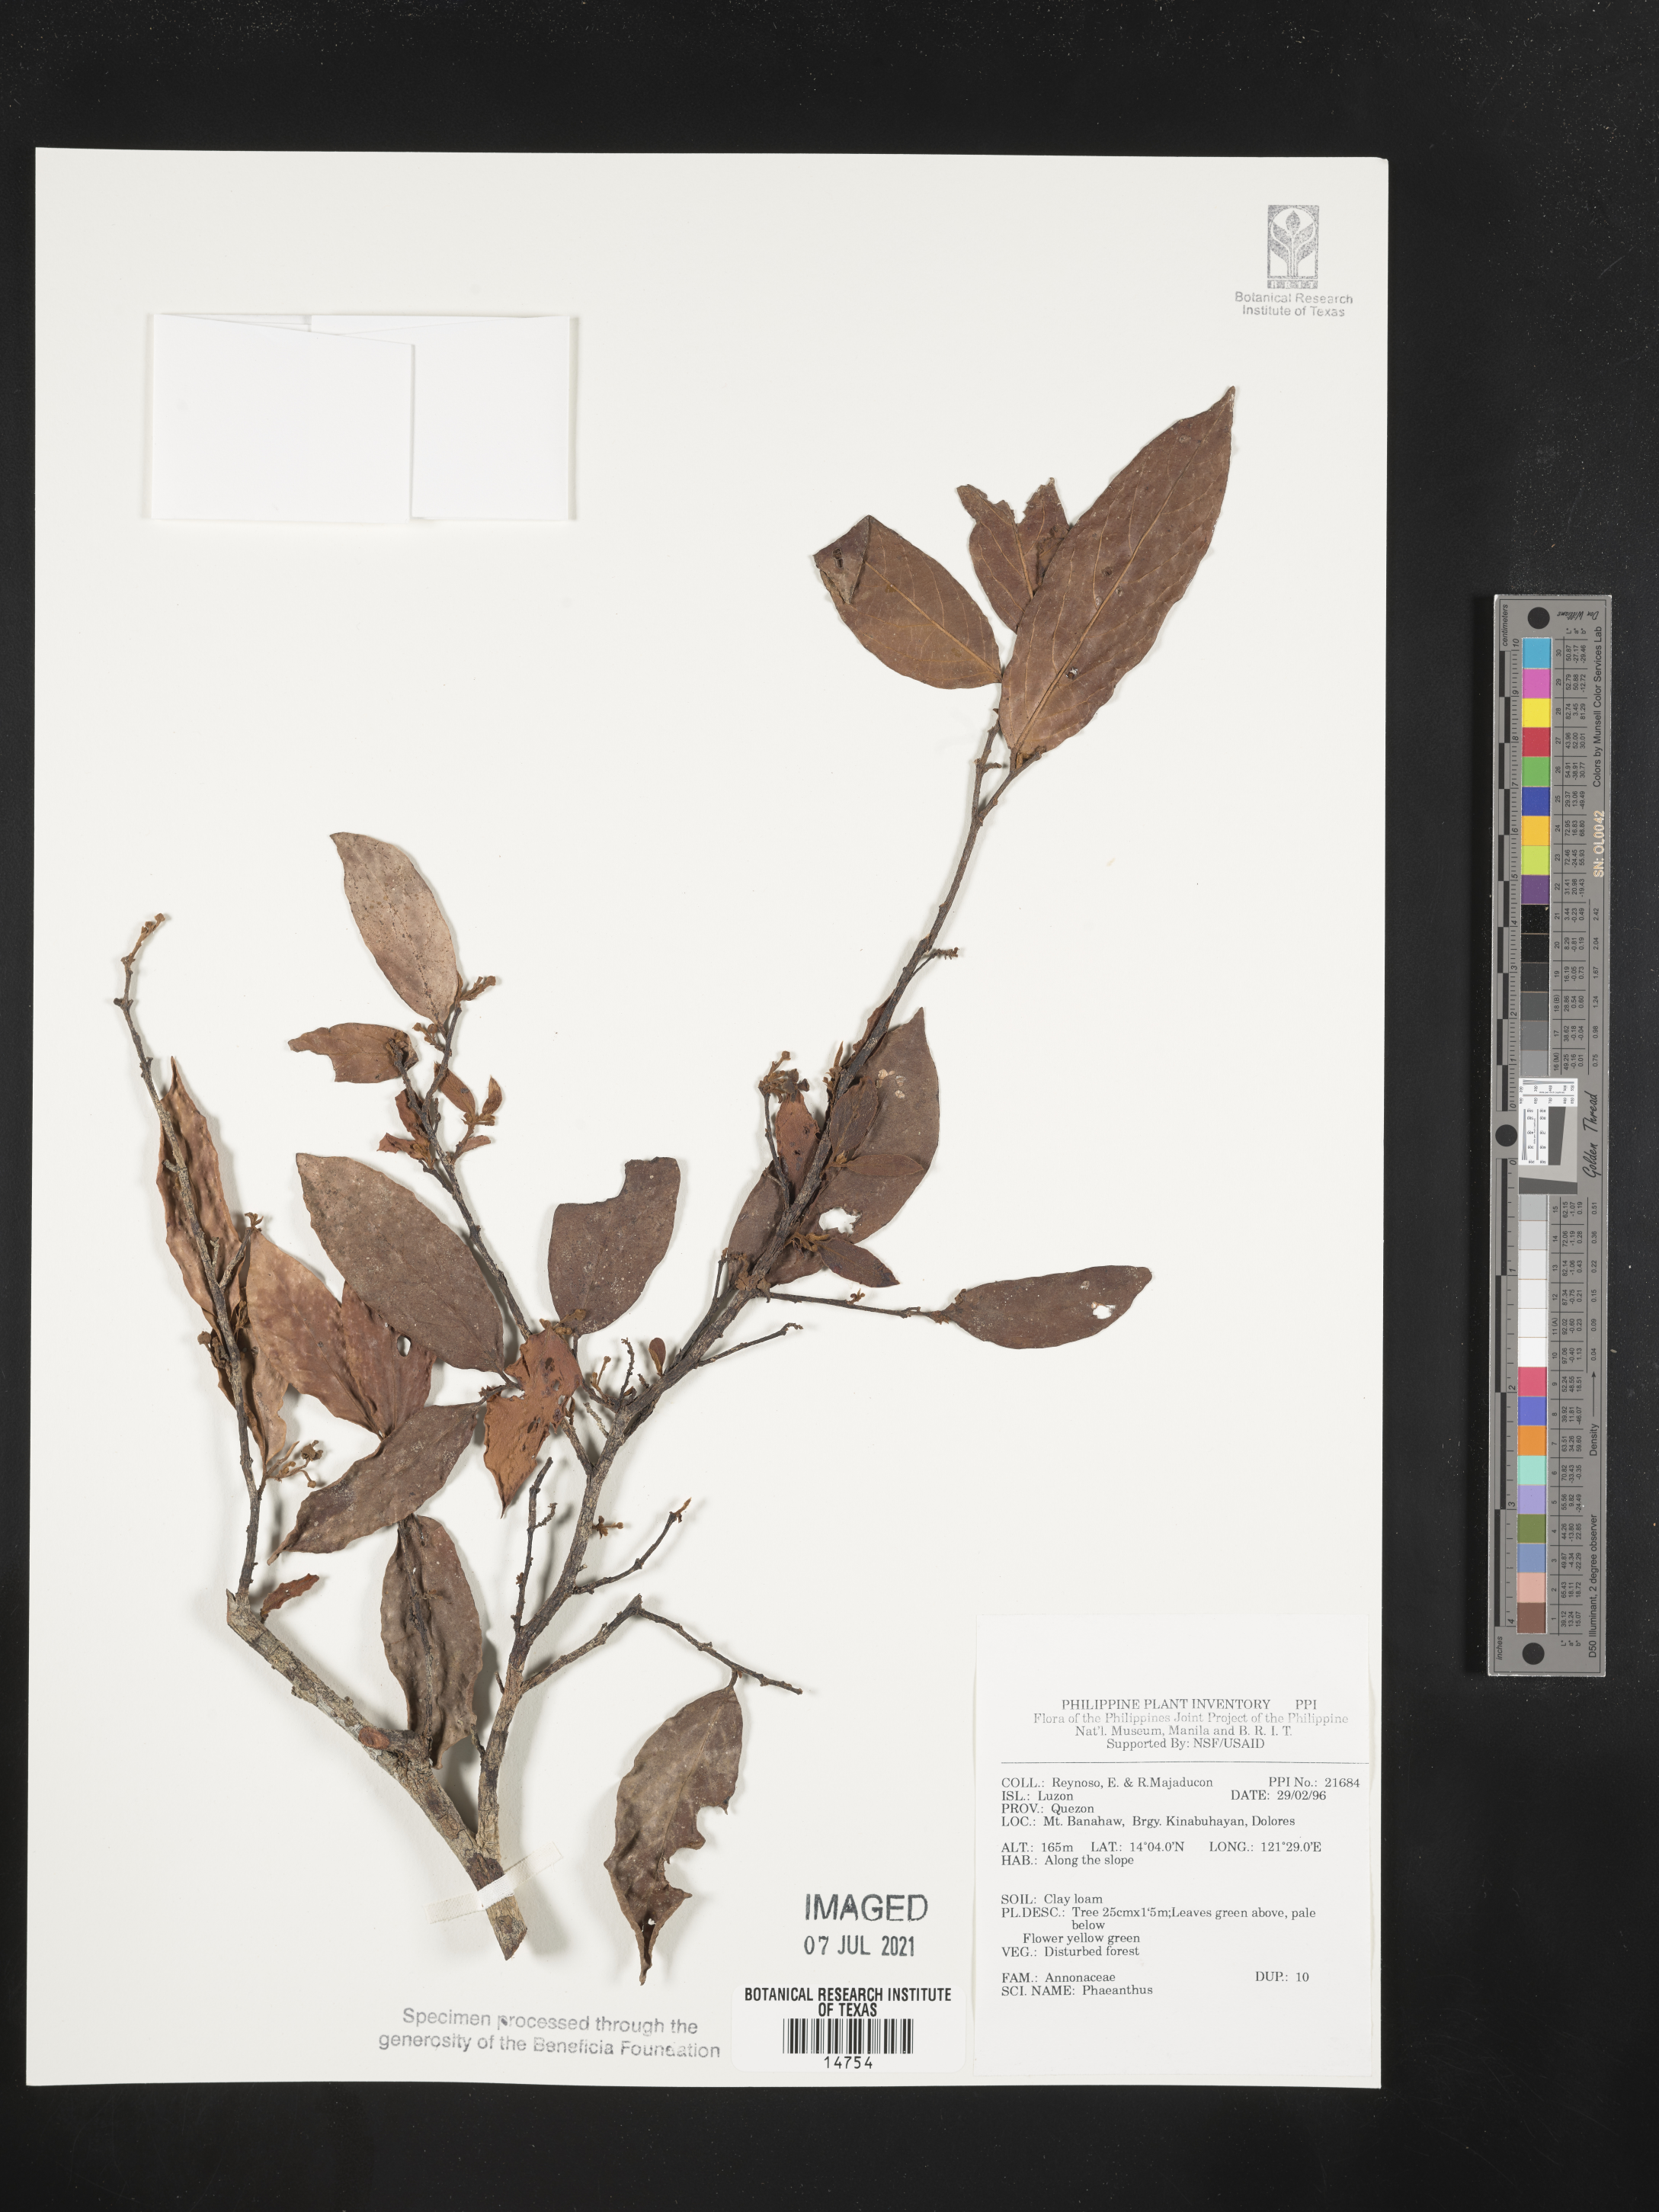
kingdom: Plantae
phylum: Tracheophyta
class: Magnoliopsida
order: Magnoliales
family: Annonaceae
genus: Phaeanthus
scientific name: Phaeanthus
